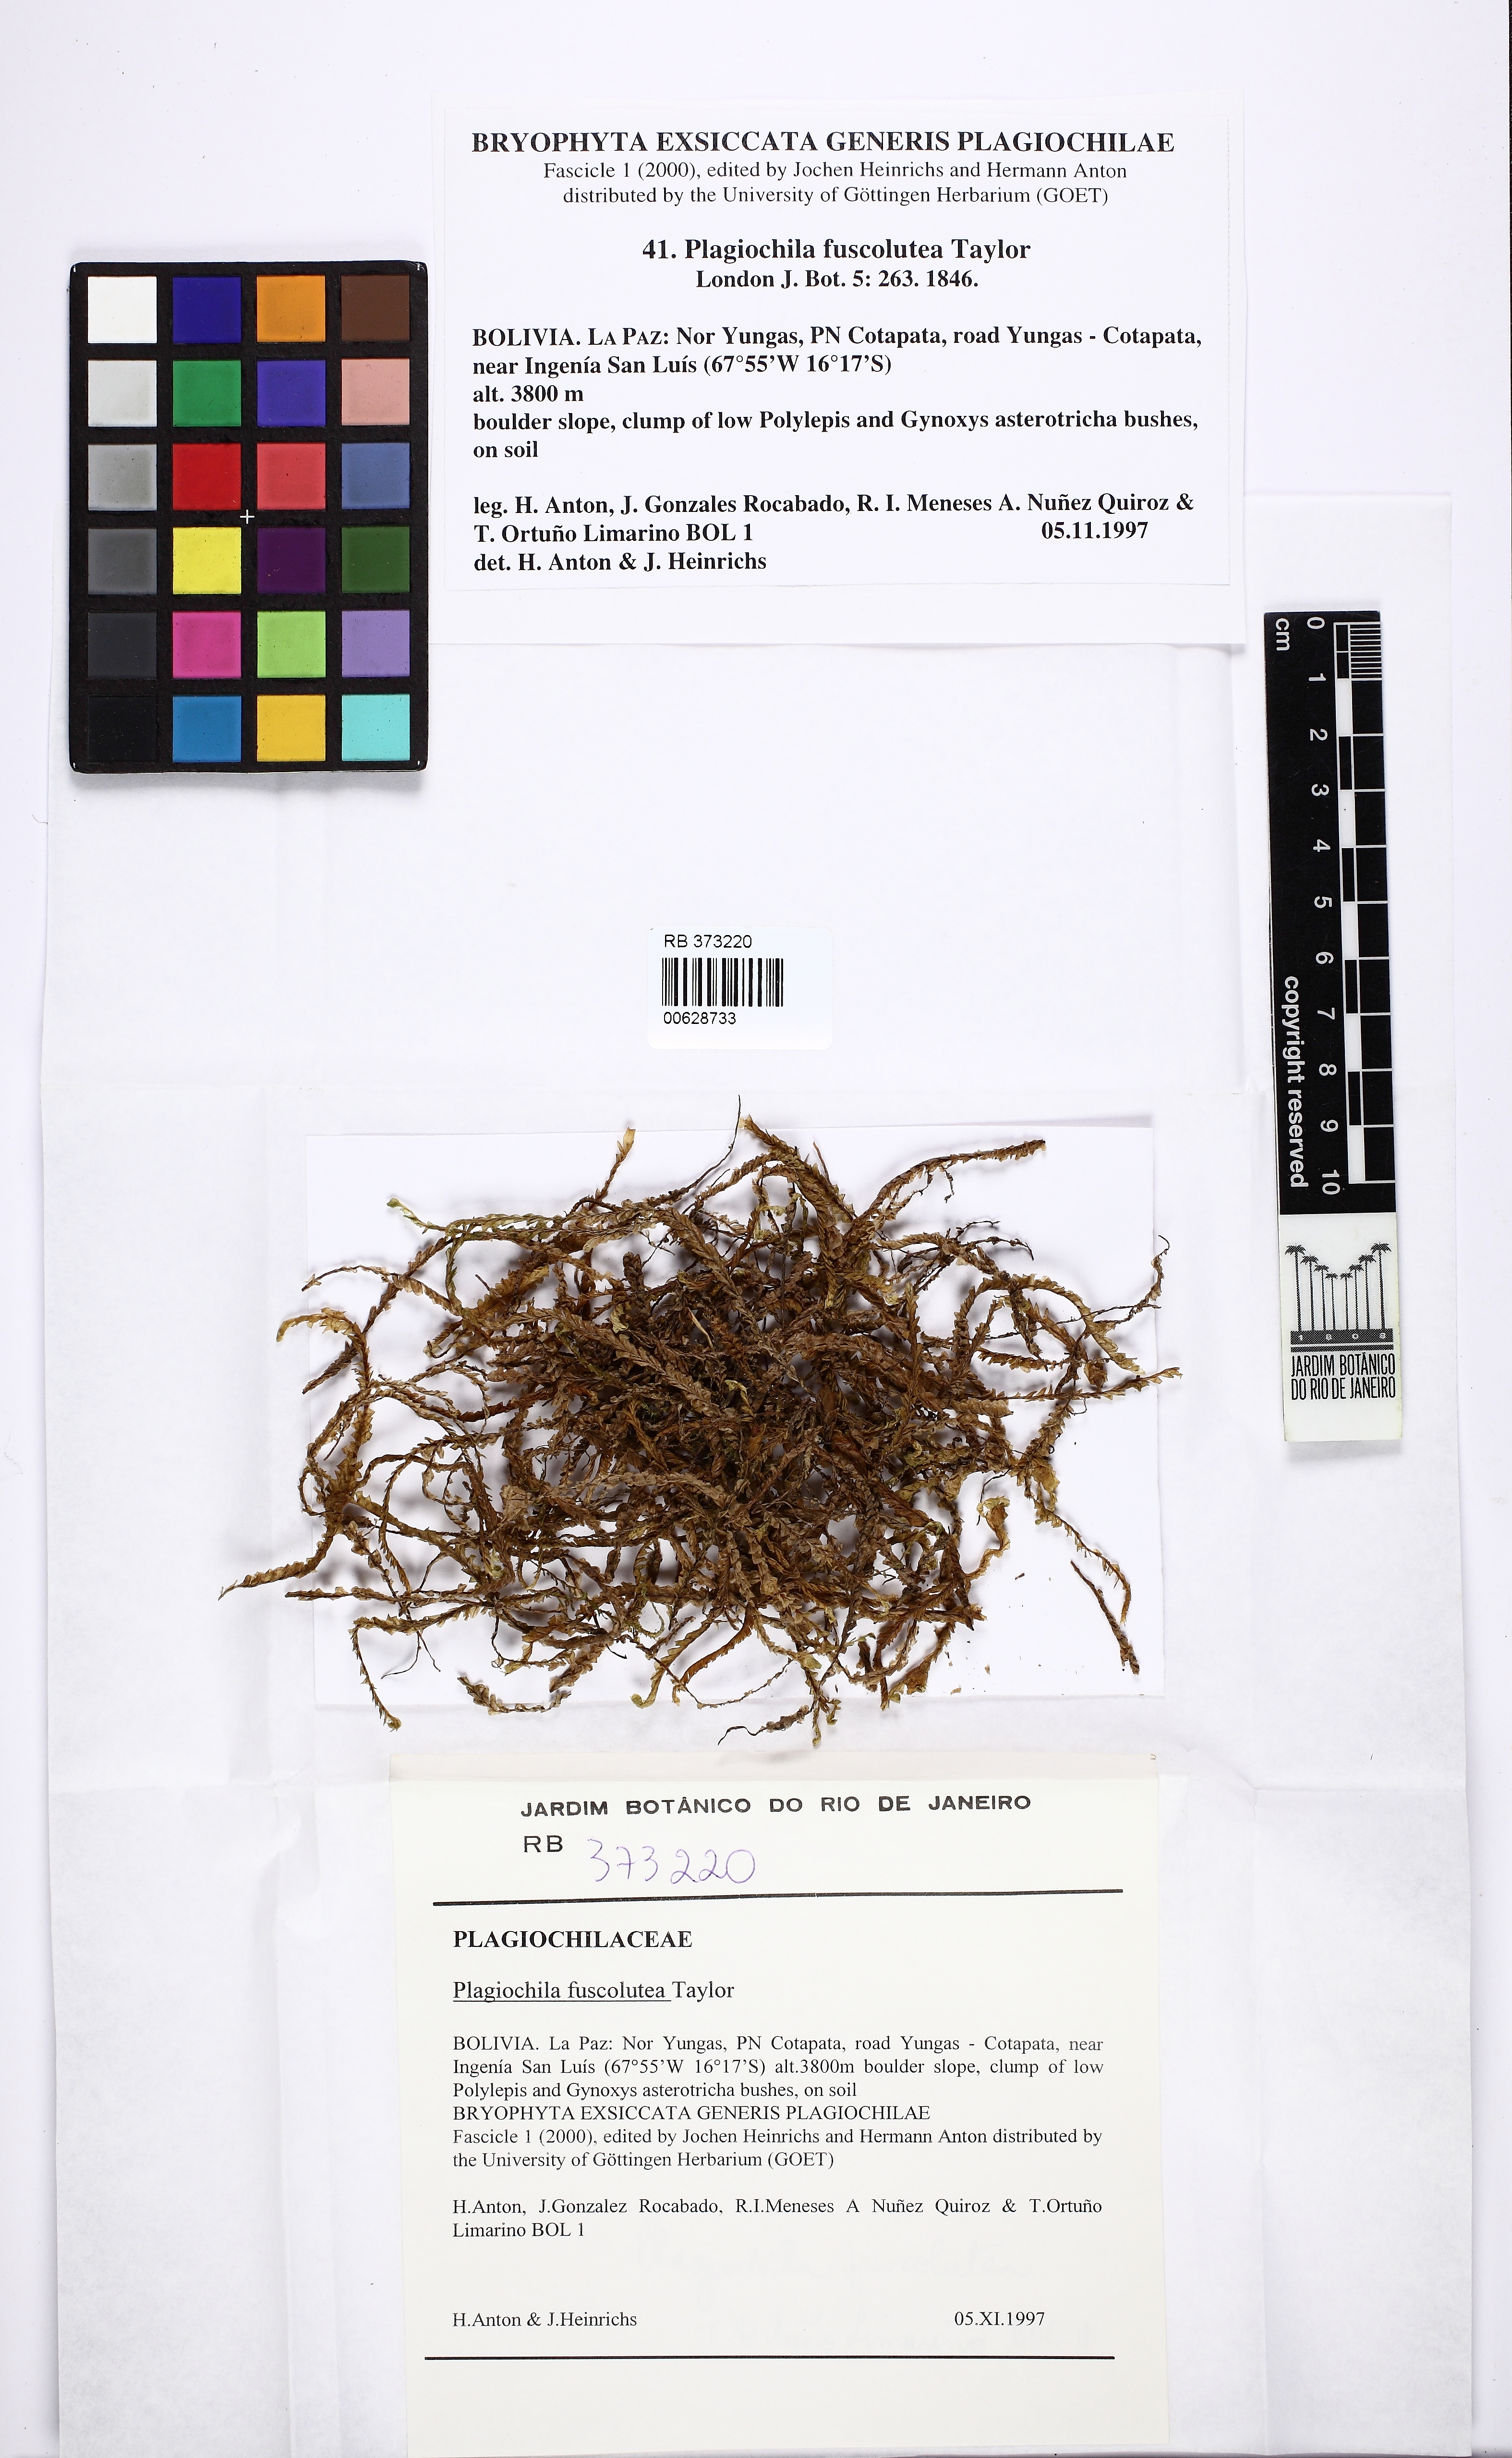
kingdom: Plantae
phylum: Marchantiophyta
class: Jungermanniopsida
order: Jungermanniales
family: Plagiochilaceae
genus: Plagiochila
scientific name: Plagiochila fuscolutea
